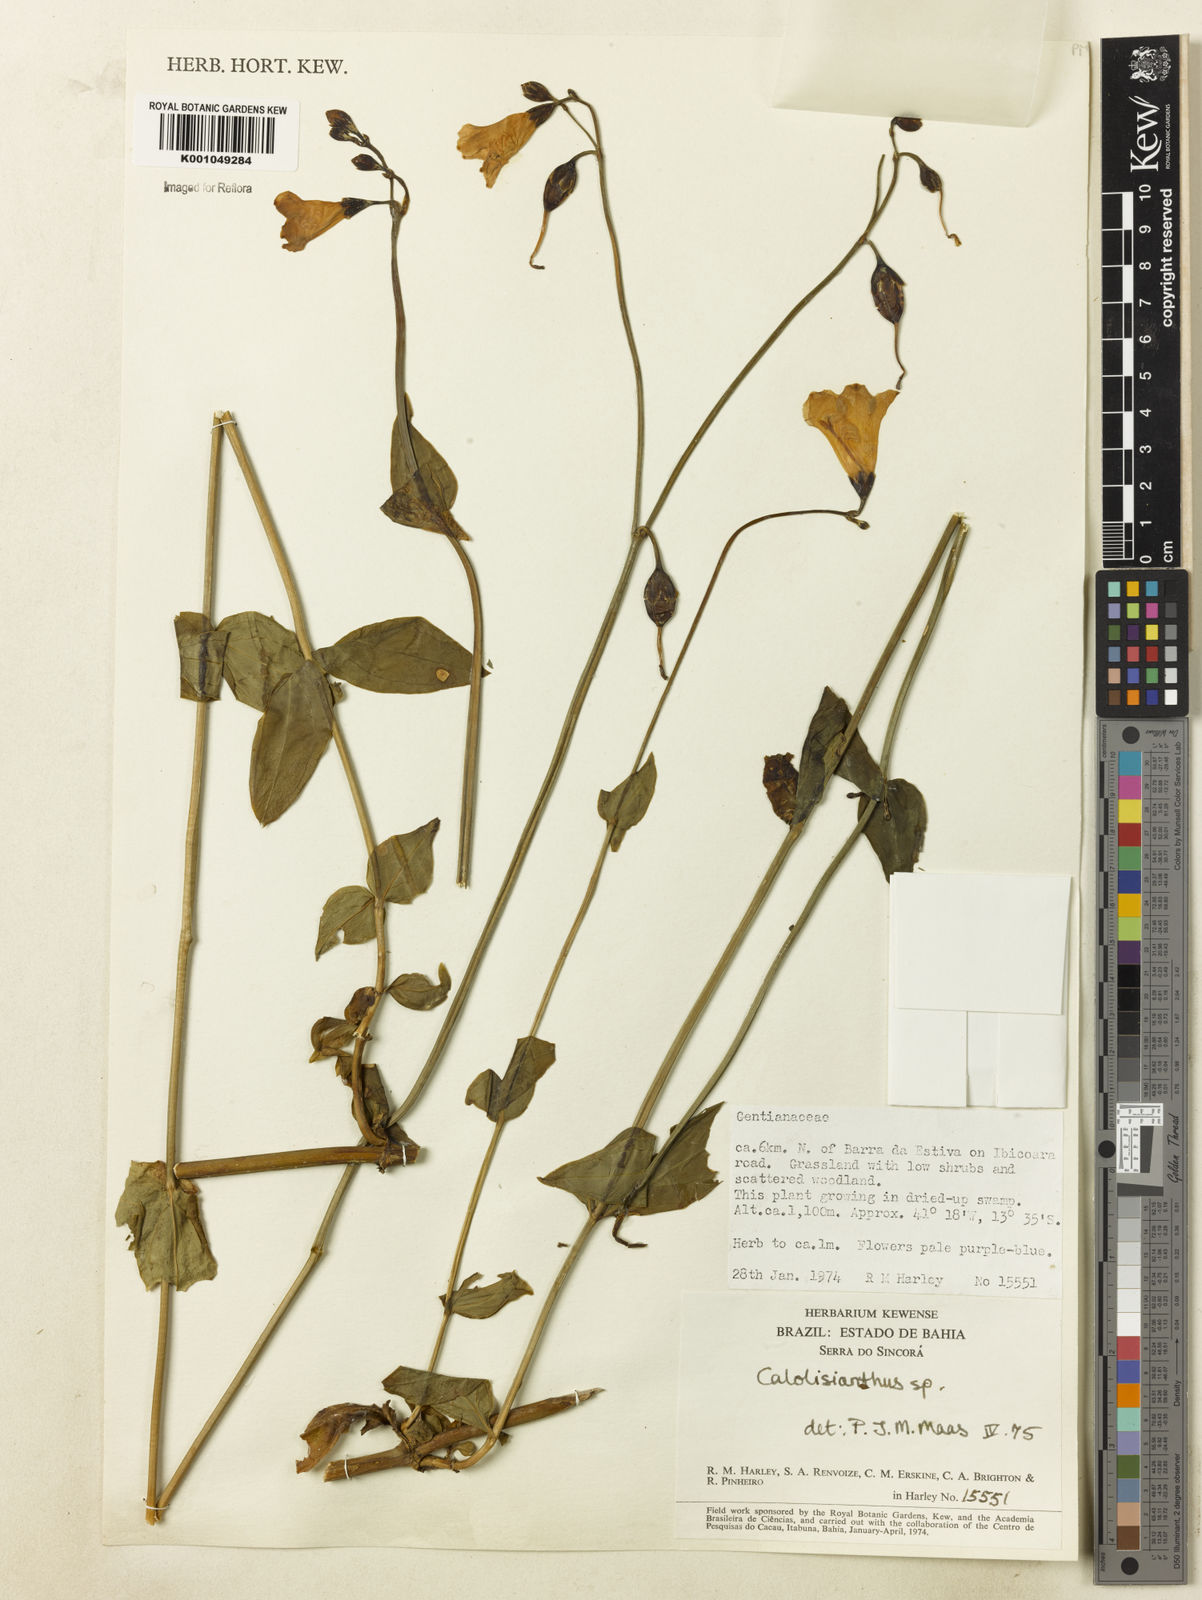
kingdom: Plantae
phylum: Tracheophyta
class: Magnoliopsida
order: Gentianales
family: Gentianaceae
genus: Calolisianthus
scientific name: Calolisianthus
